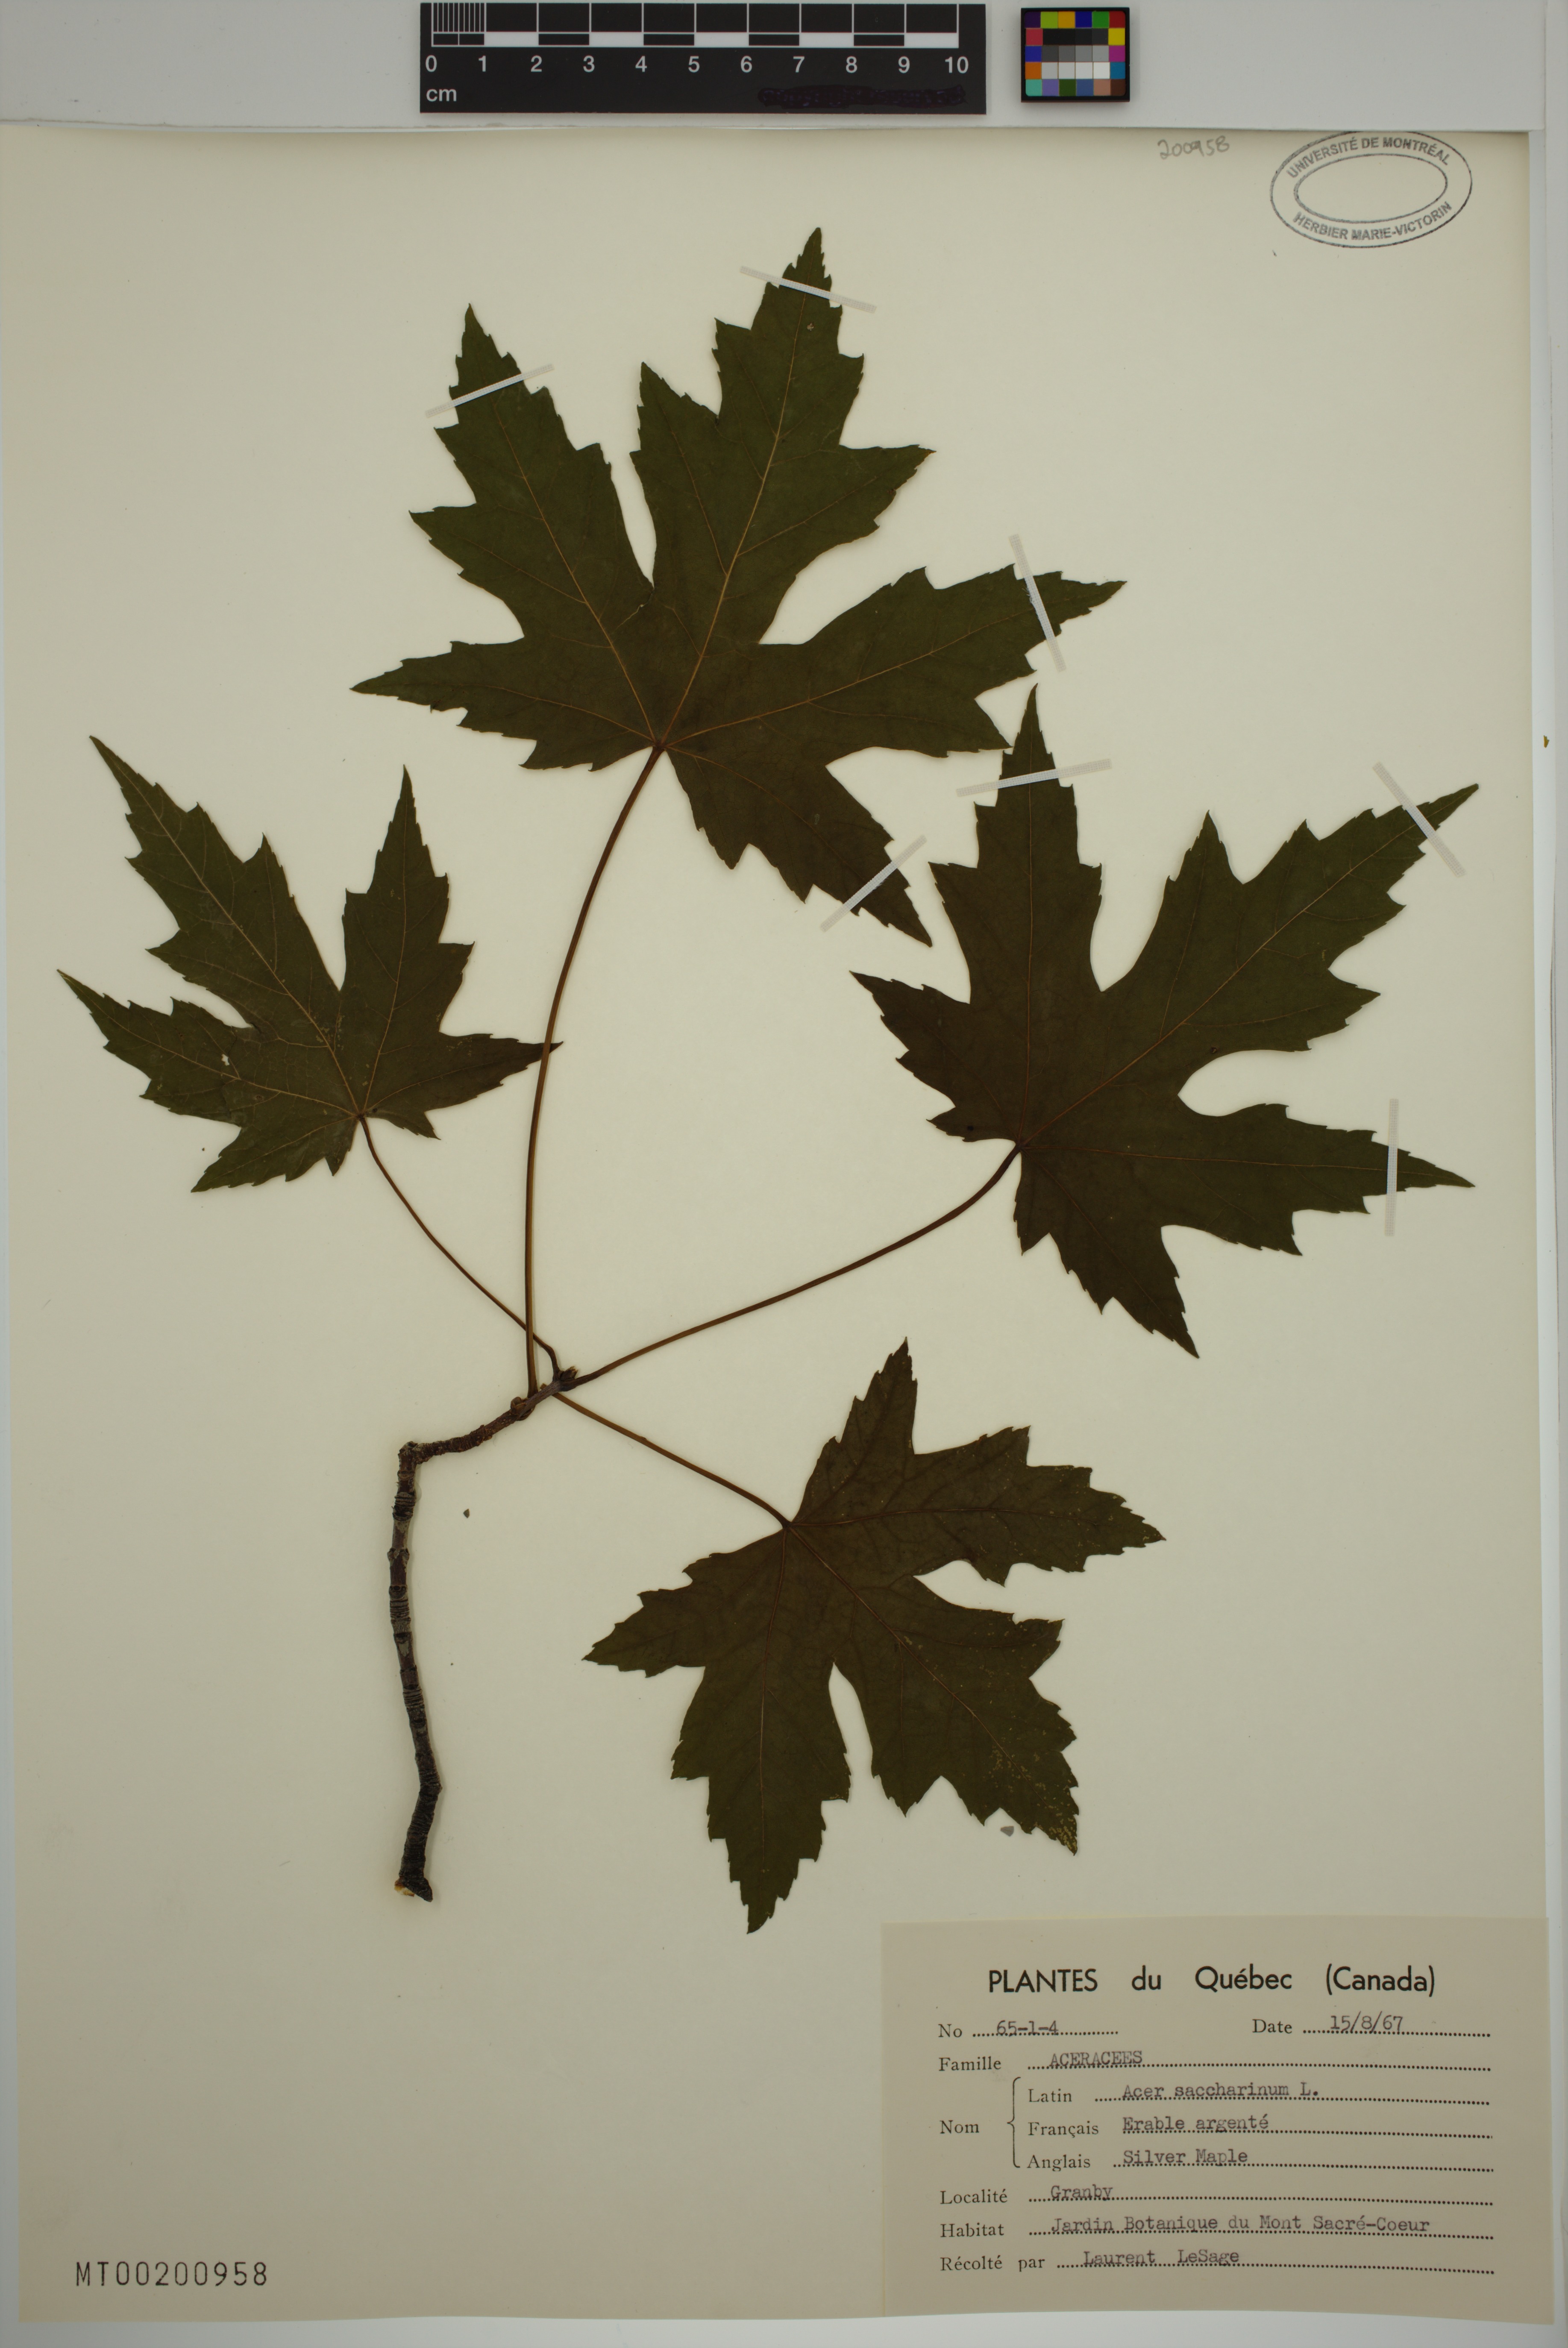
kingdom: Plantae
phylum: Tracheophyta
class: Magnoliopsida
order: Sapindales
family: Sapindaceae
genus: Acer
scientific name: Acer saccharinum
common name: Silver maple
